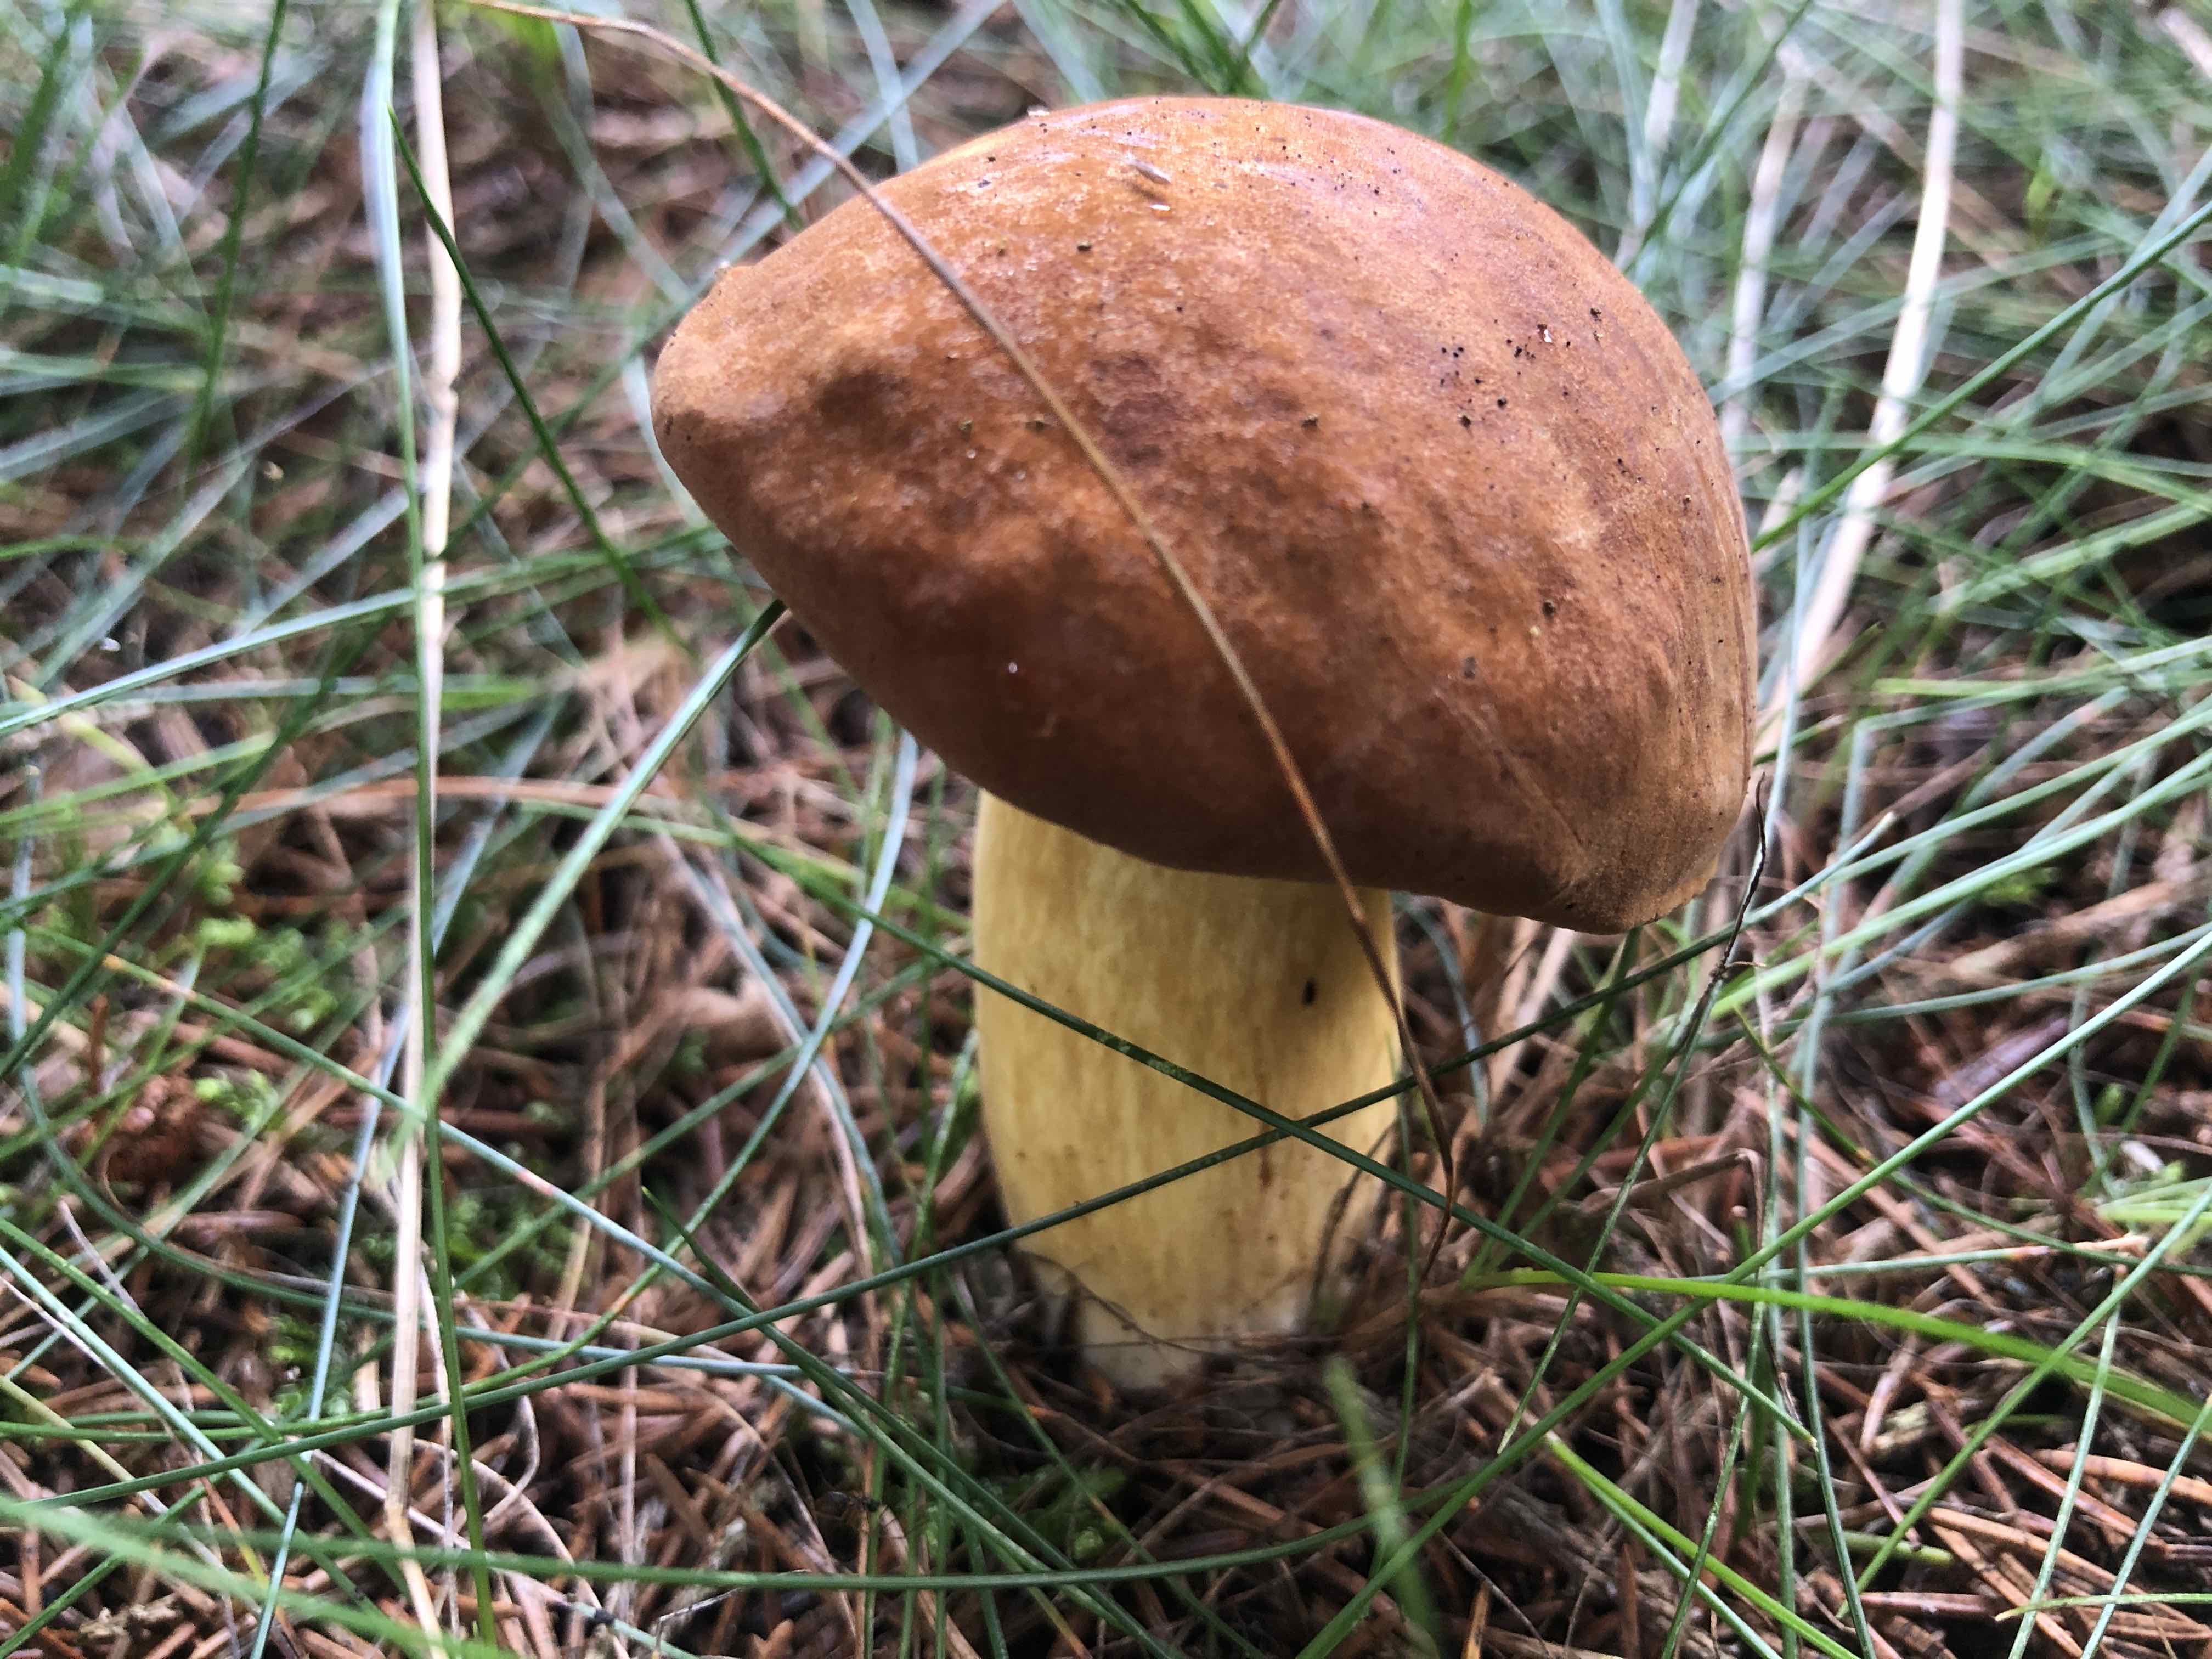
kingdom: Fungi
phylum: Basidiomycota
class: Agaricomycetes
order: Boletales
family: Boletaceae
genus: Imleria
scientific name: Imleria badia
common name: brunstokket rørhat
